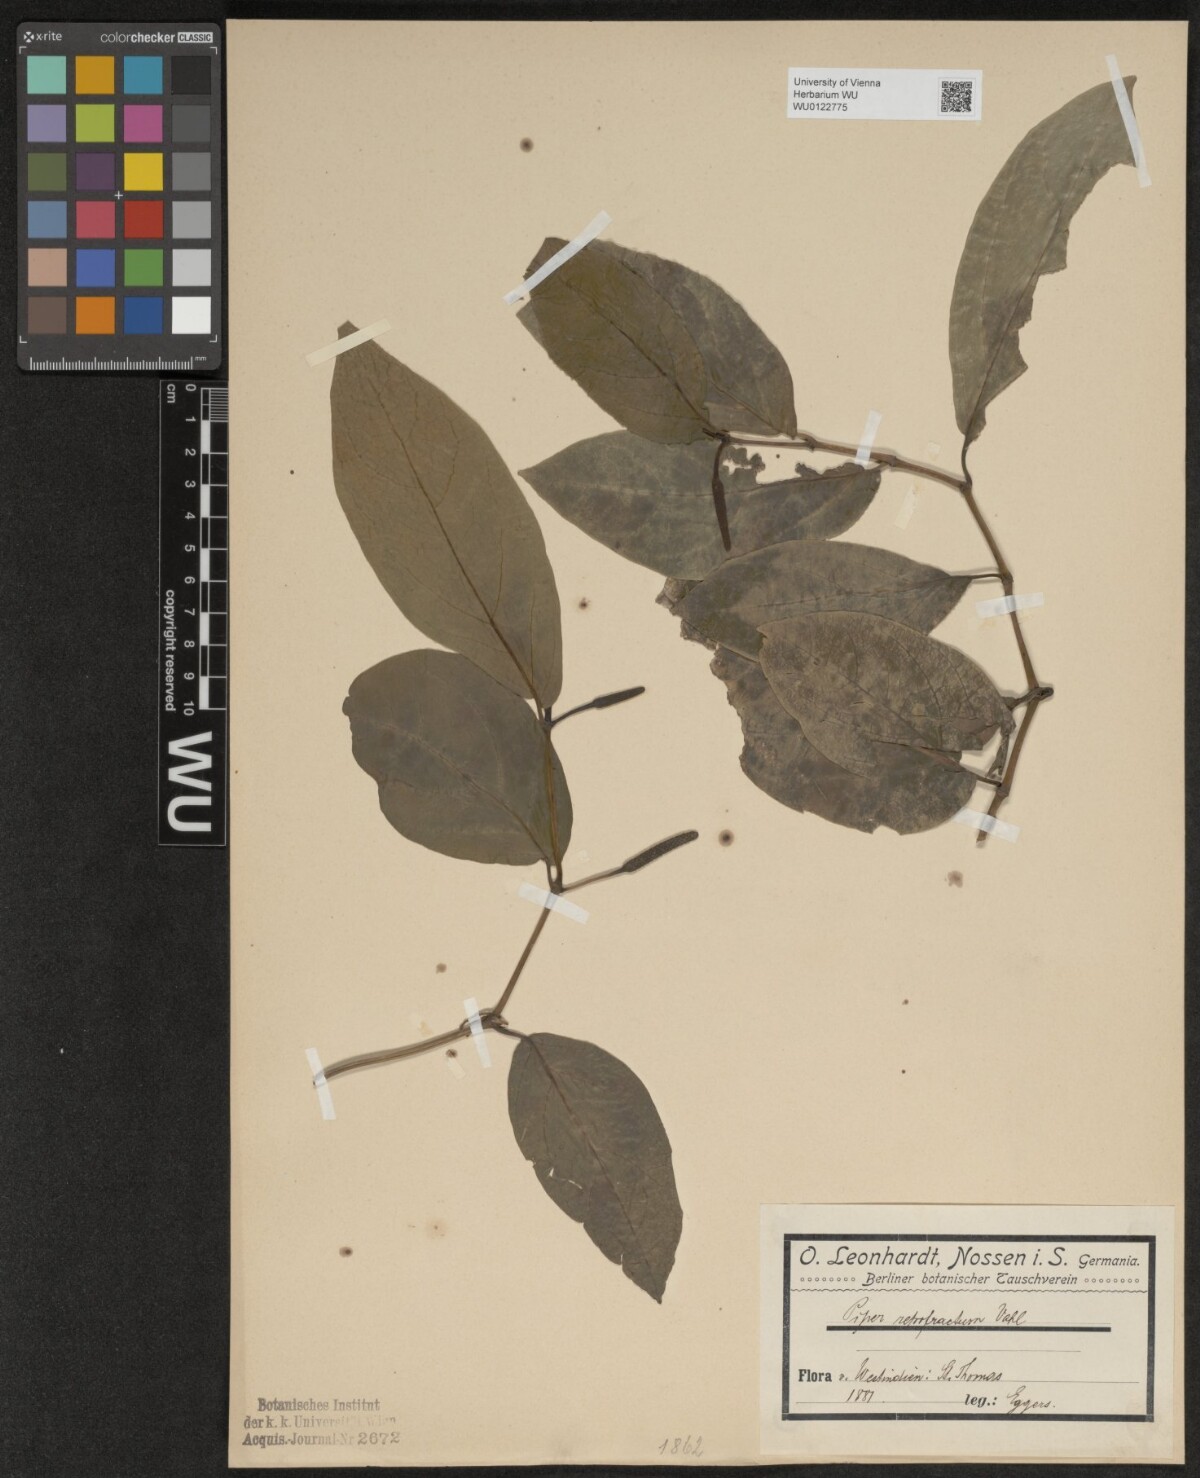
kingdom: Plantae
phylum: Tracheophyta
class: Magnoliopsida
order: Piperales
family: Piperaceae
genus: Piper
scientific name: Piper retrofractum
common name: Javanese long pepper
